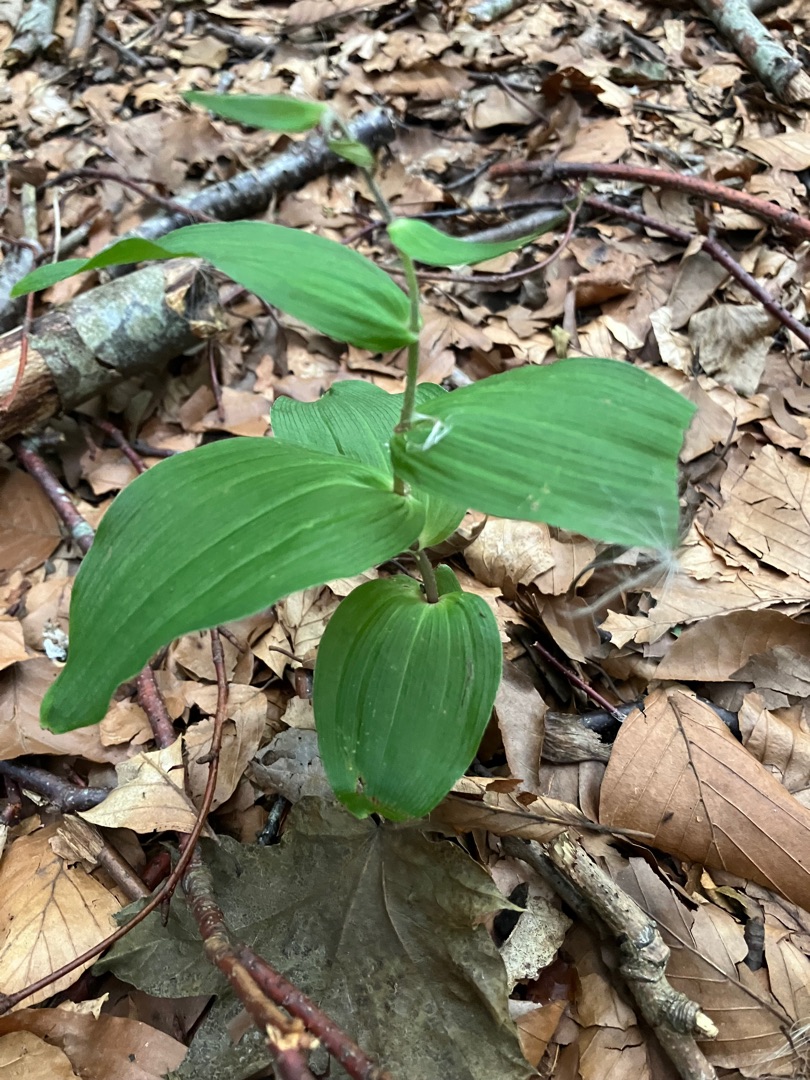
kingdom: Plantae
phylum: Tracheophyta
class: Liliopsida
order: Asparagales
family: Orchidaceae
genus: Epipactis
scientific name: Epipactis helleborine
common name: Skov-hullæbe
